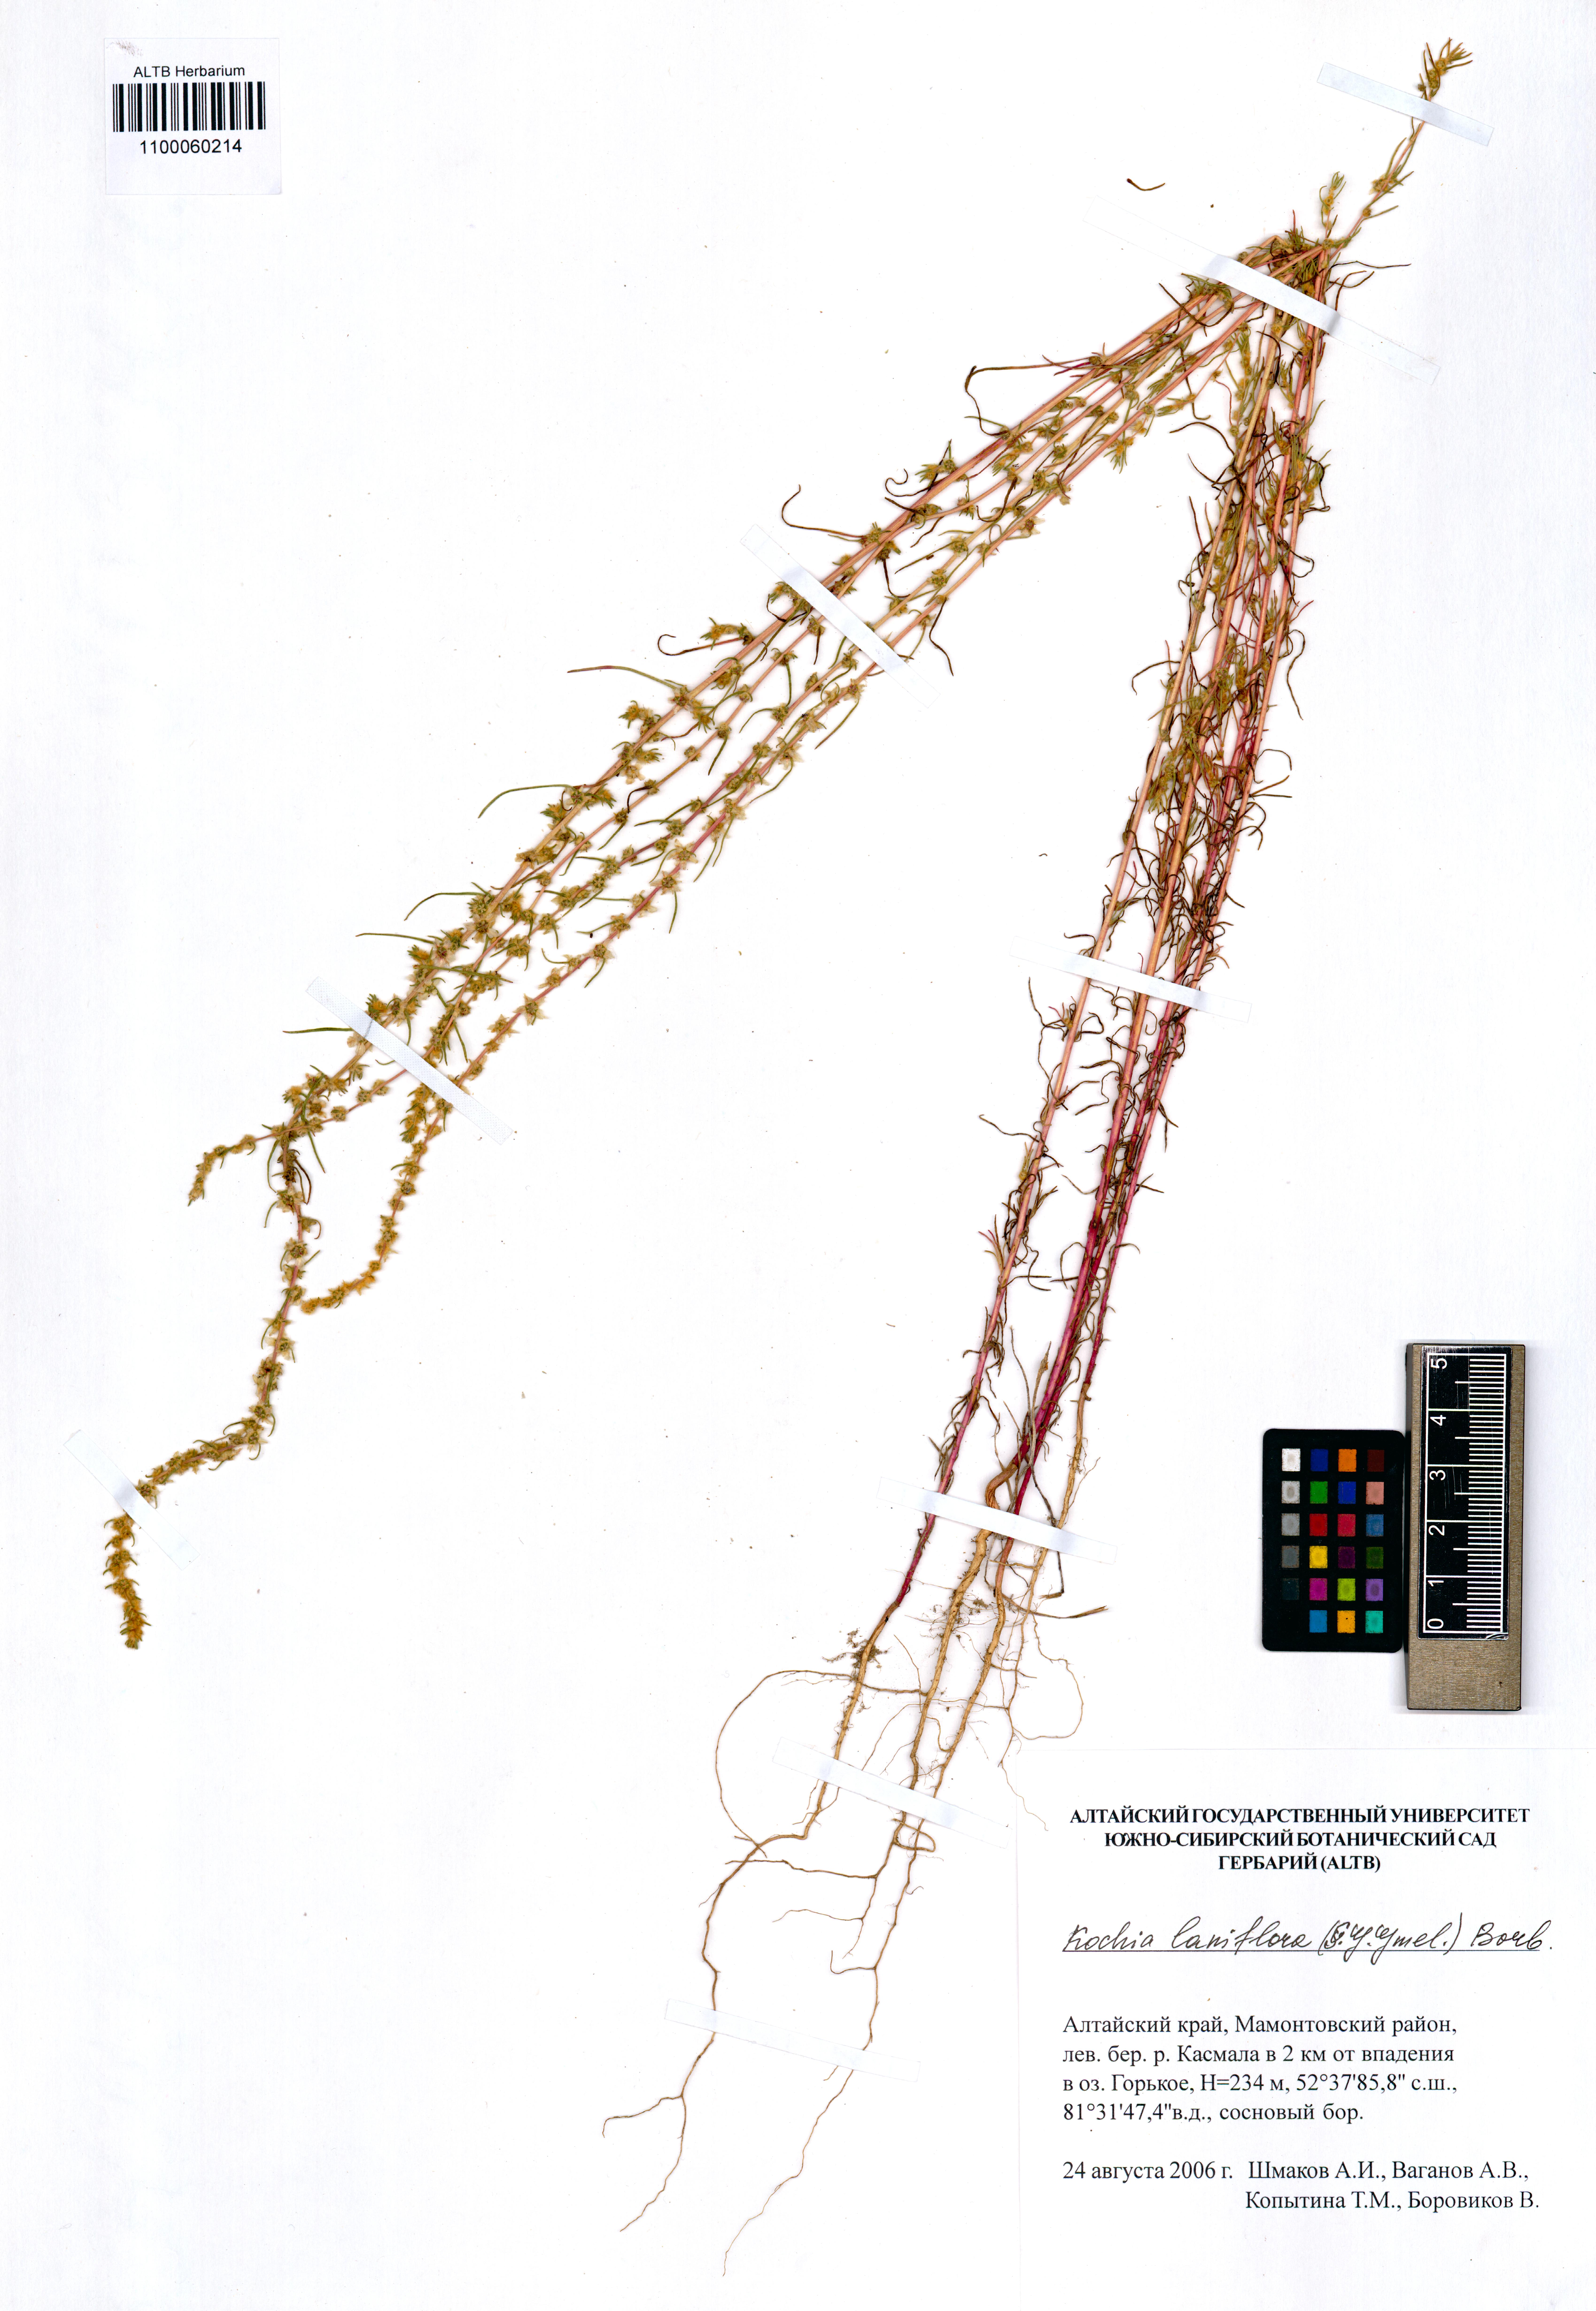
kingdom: Plantae
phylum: Tracheophyta
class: Magnoliopsida
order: Caryophyllales
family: Amaranthaceae
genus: Bassia
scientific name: Bassia laniflora
